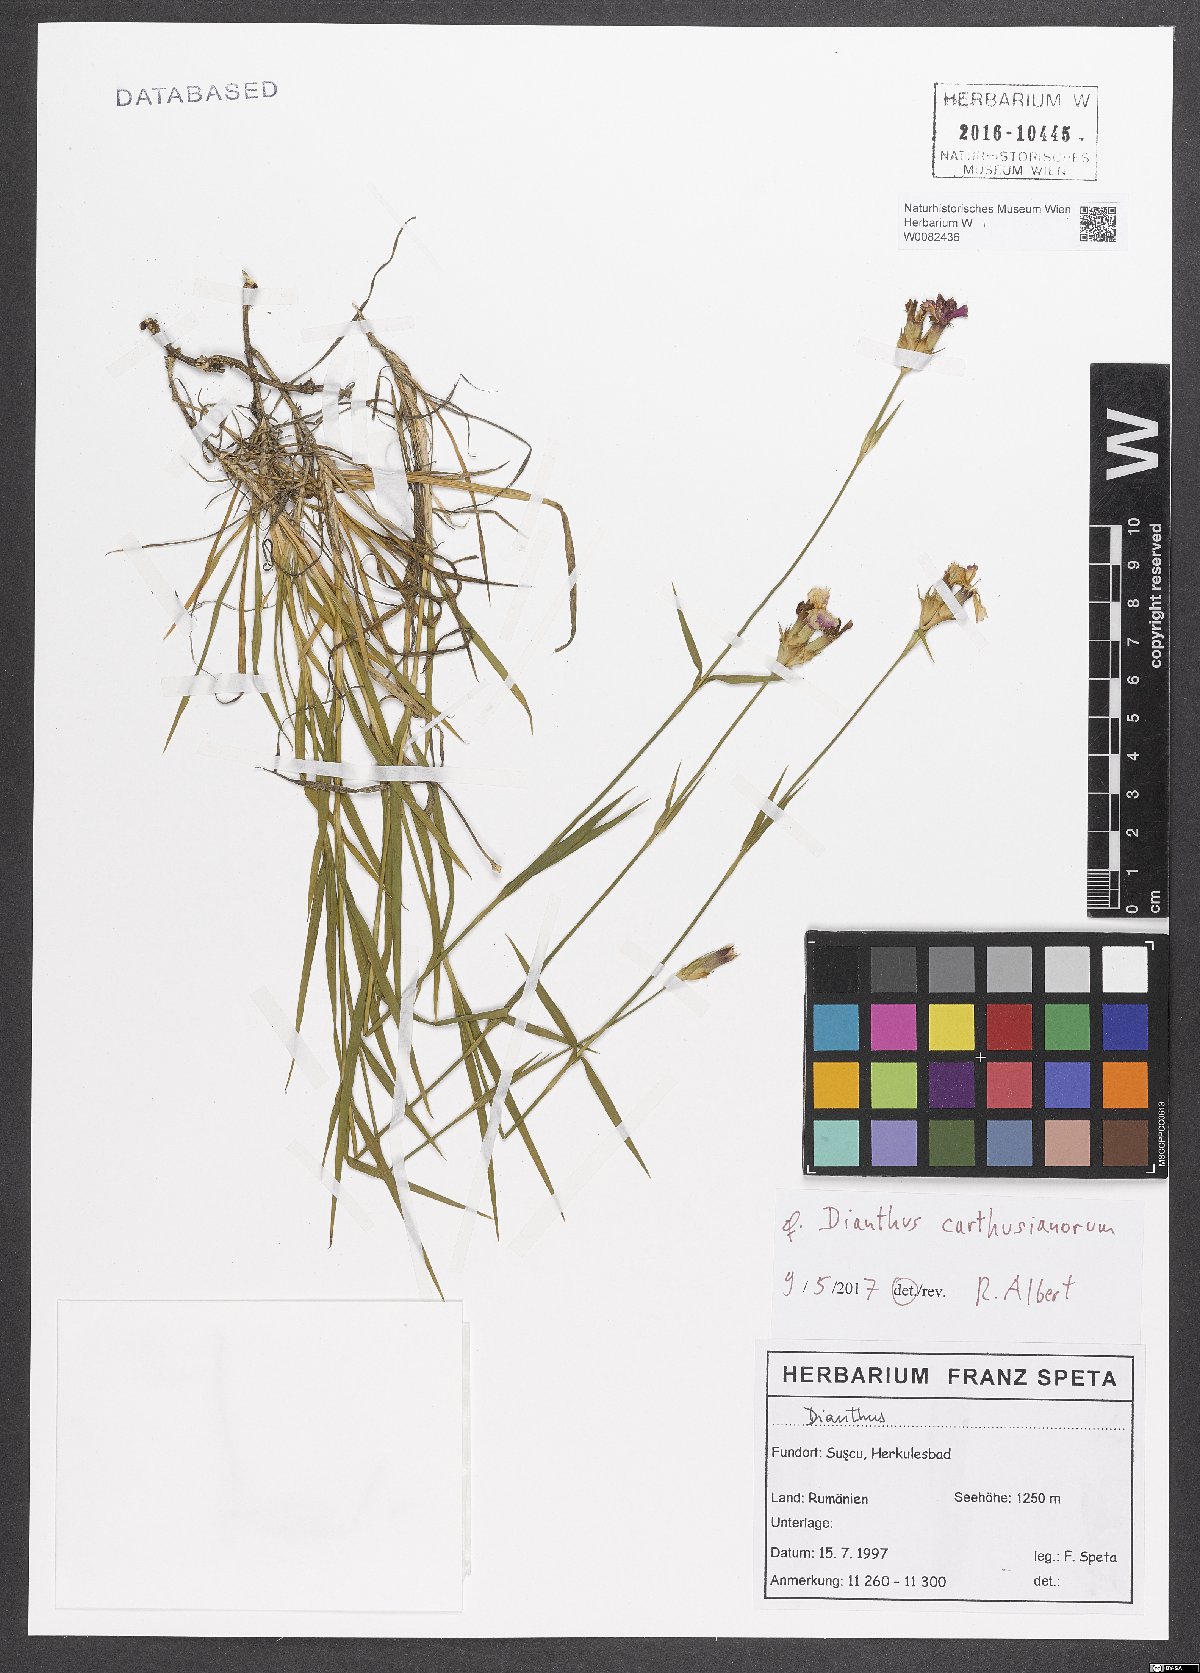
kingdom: Plantae
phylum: Tracheophyta
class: Magnoliopsida
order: Caryophyllales
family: Caryophyllaceae
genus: Dianthus
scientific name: Dianthus carthusianorum
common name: Carthusian pink
